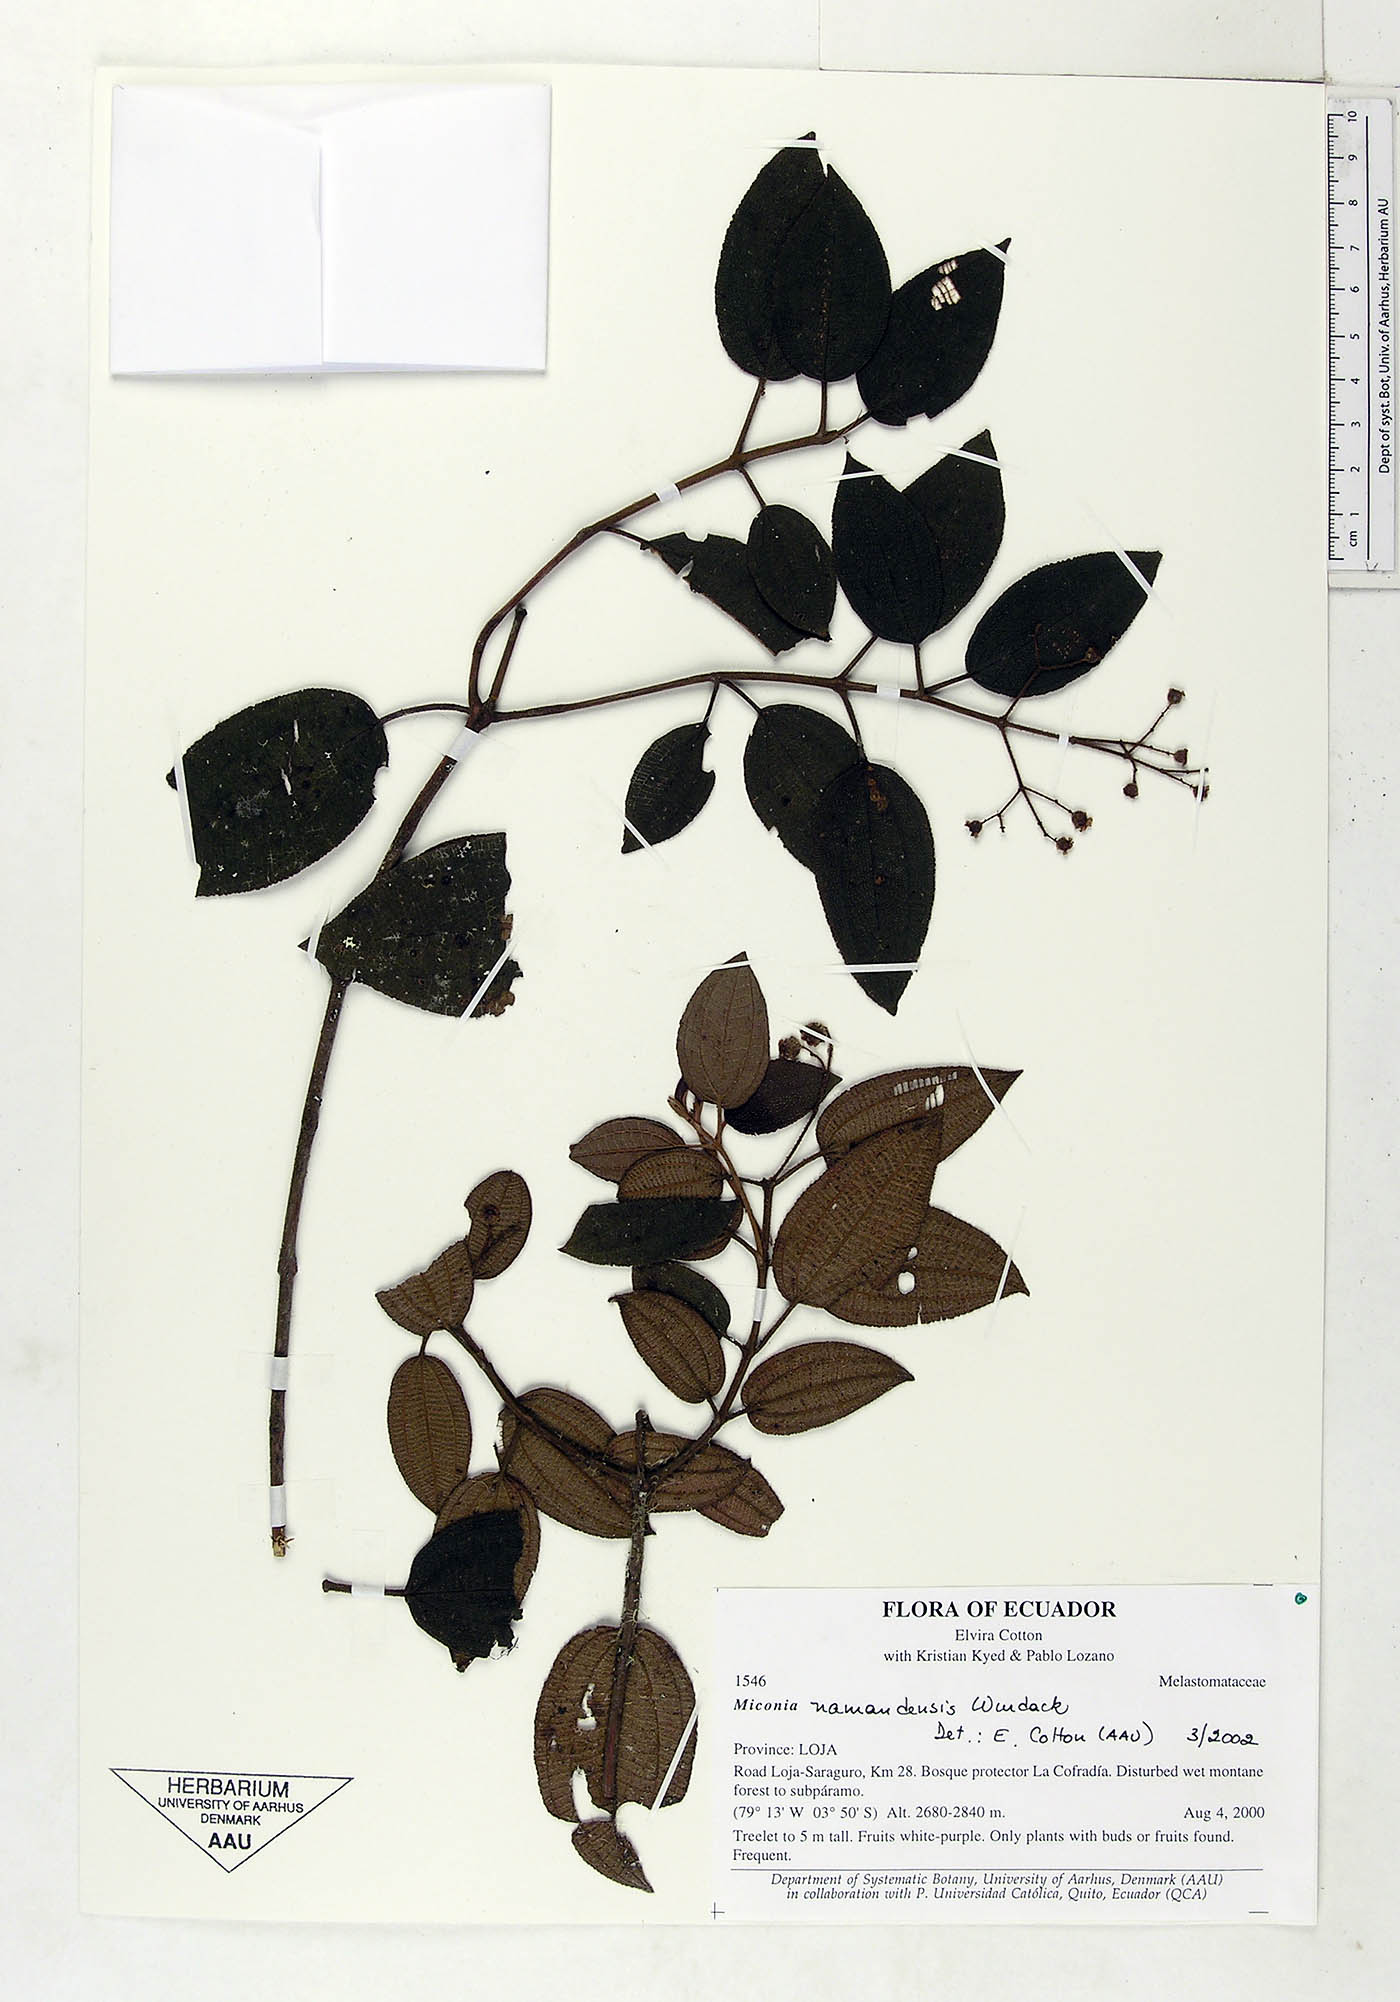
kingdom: Plantae
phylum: Tracheophyta
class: Magnoliopsida
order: Myrtales
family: Melastomataceae
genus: Miconia
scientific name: Miconia namandensis
